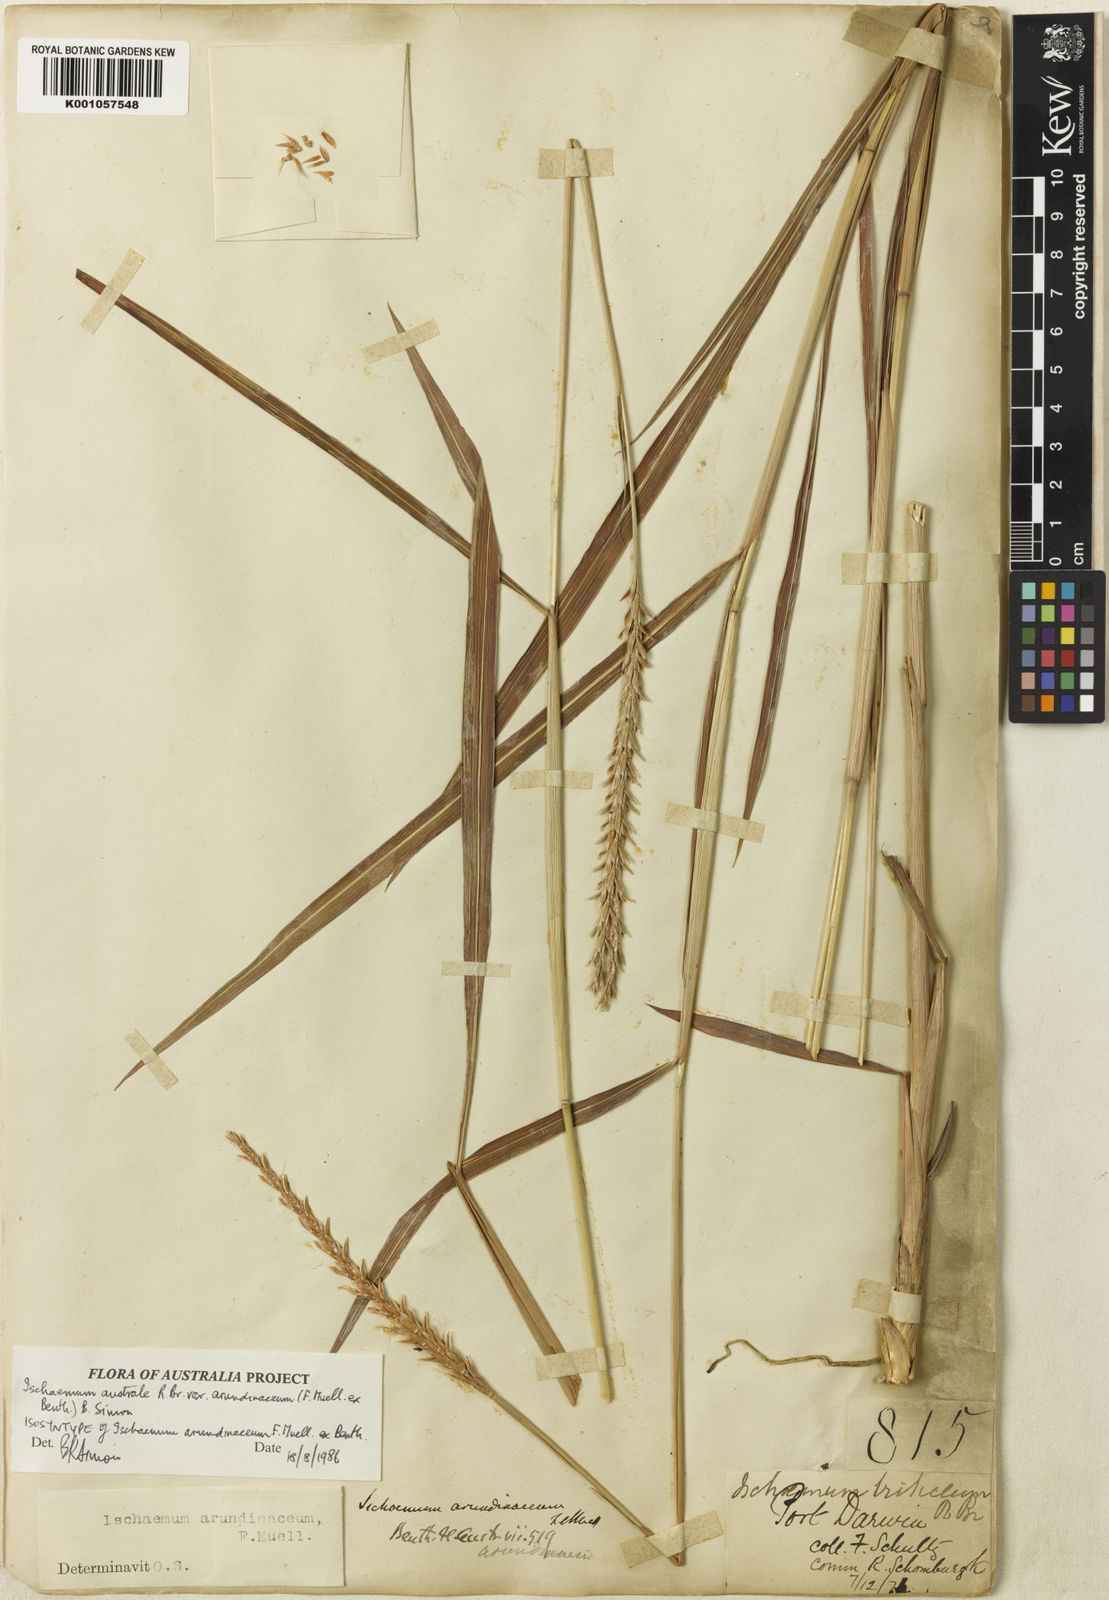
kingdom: Plantae
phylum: Tracheophyta
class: Liliopsida
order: Poales
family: Poaceae
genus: Ischaemum
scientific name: Ischaemum australe
